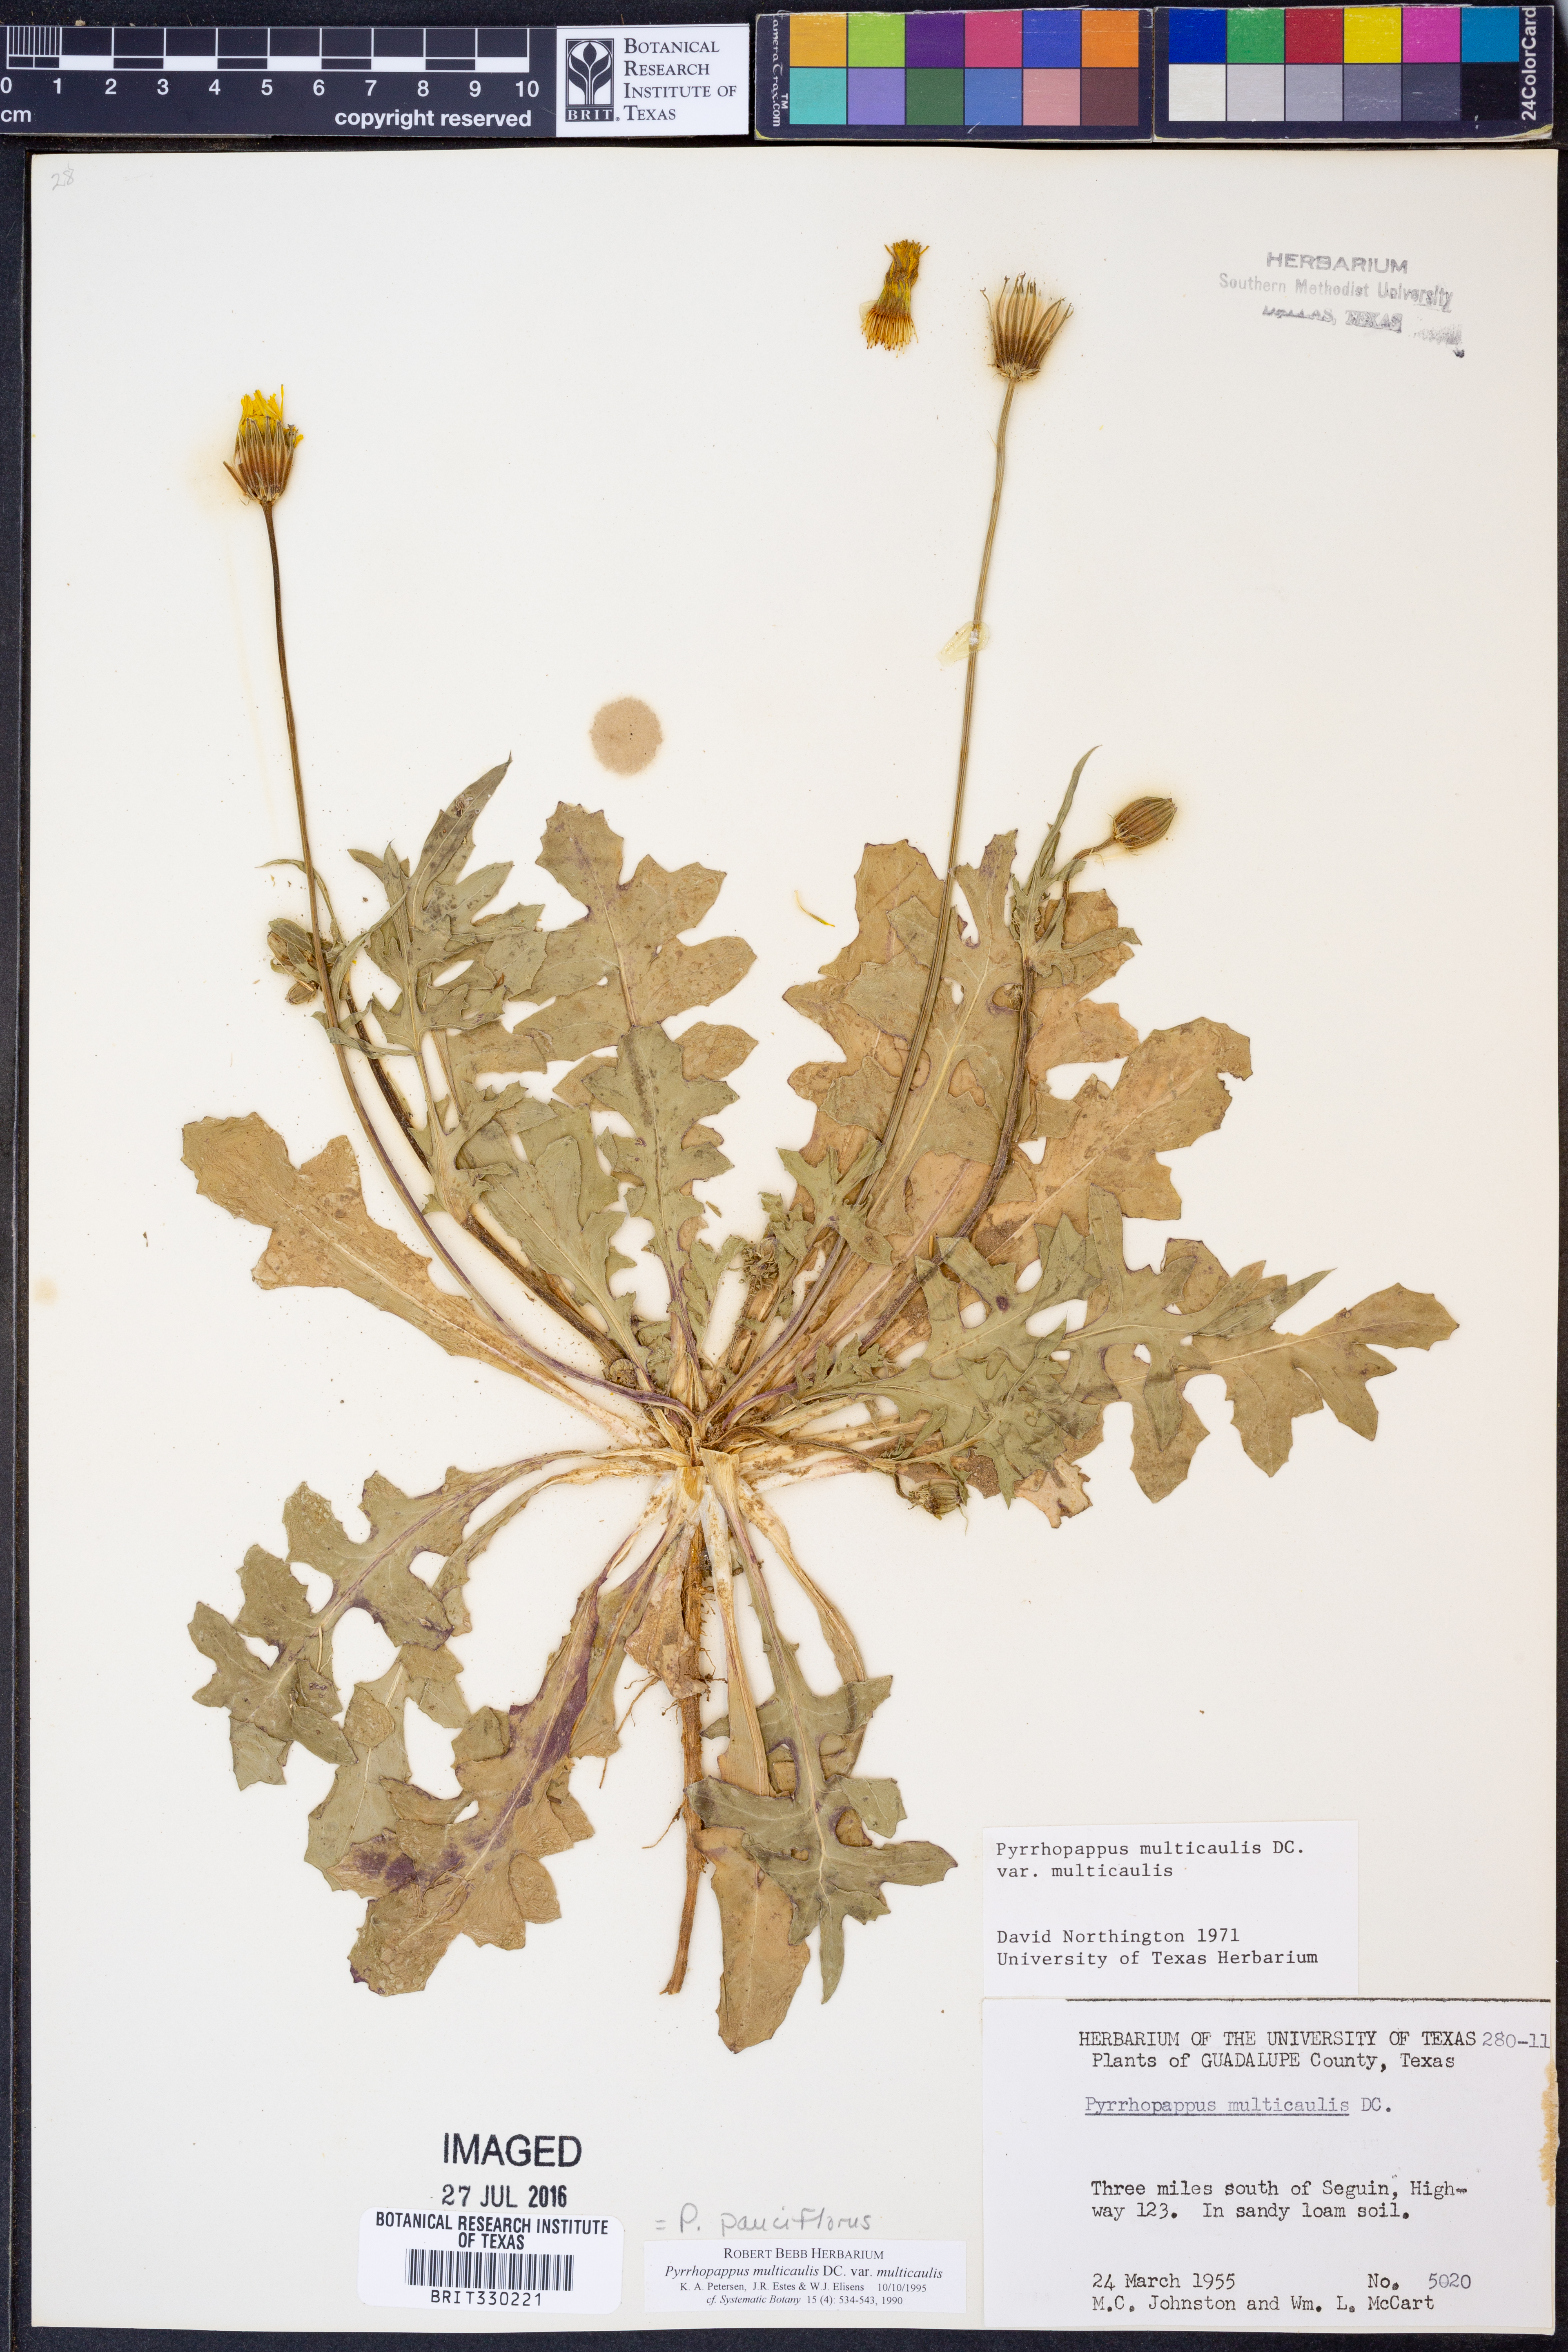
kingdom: Plantae
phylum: Tracheophyta
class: Magnoliopsida
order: Asterales
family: Asteraceae
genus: Pyrrhopappus
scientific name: Pyrrhopappus pauciflorus
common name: Texas false dandelion
